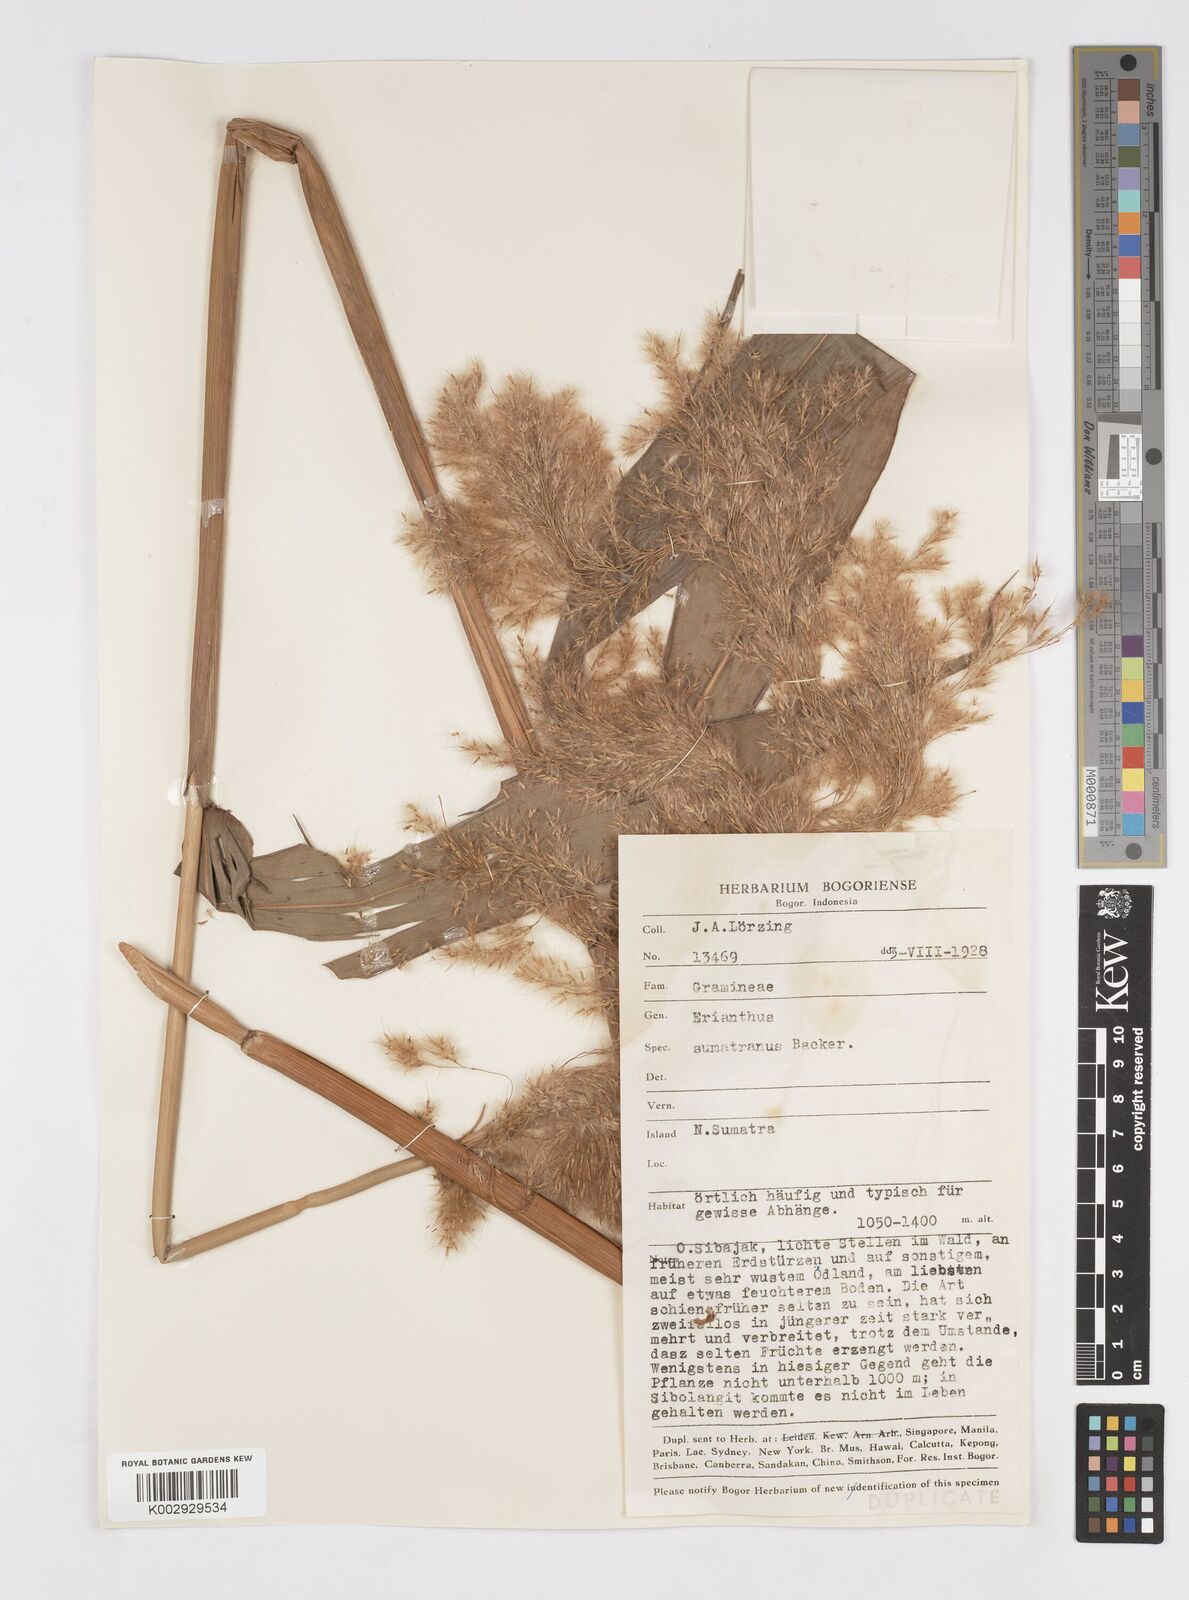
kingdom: Plantae
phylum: Tracheophyta
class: Liliopsida
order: Poales
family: Poaceae
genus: Saccharum
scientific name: Saccharum beccarii
